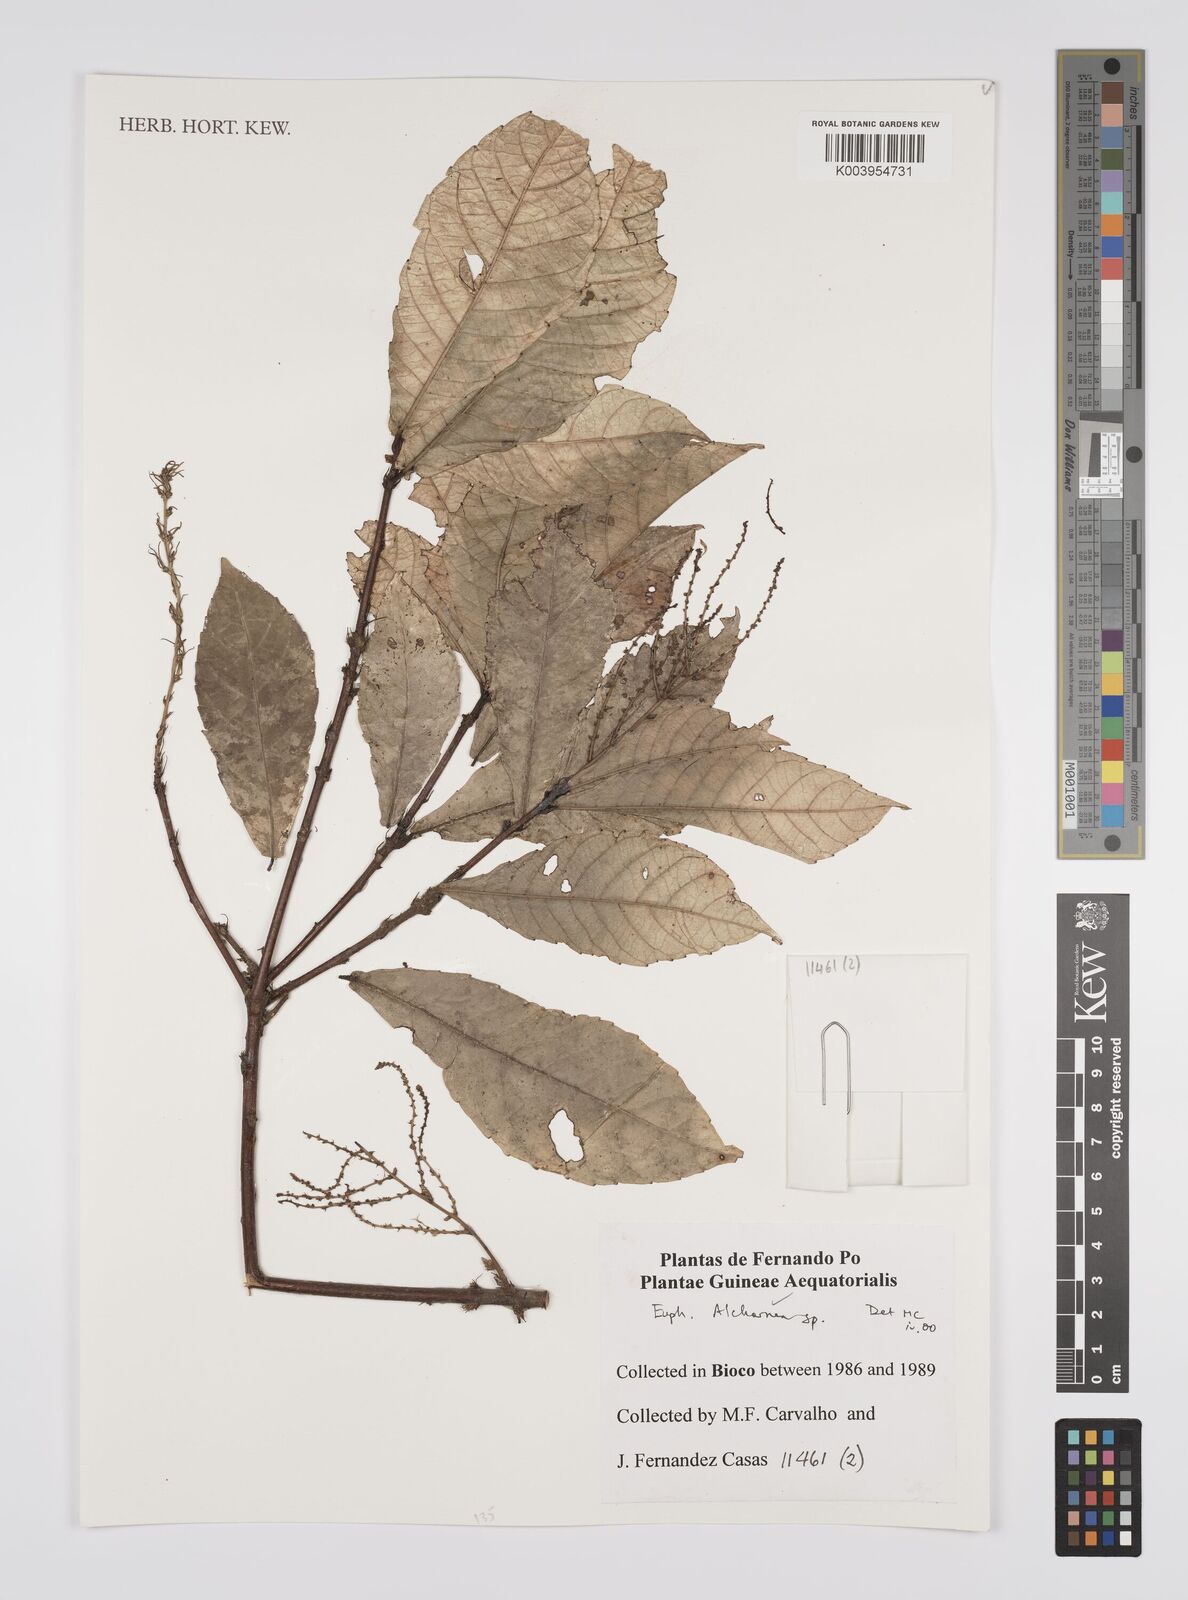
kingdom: Plantae
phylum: Tracheophyta
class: Magnoliopsida
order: Malpighiales
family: Euphorbiaceae
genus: Alchornea
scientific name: Alchornea
